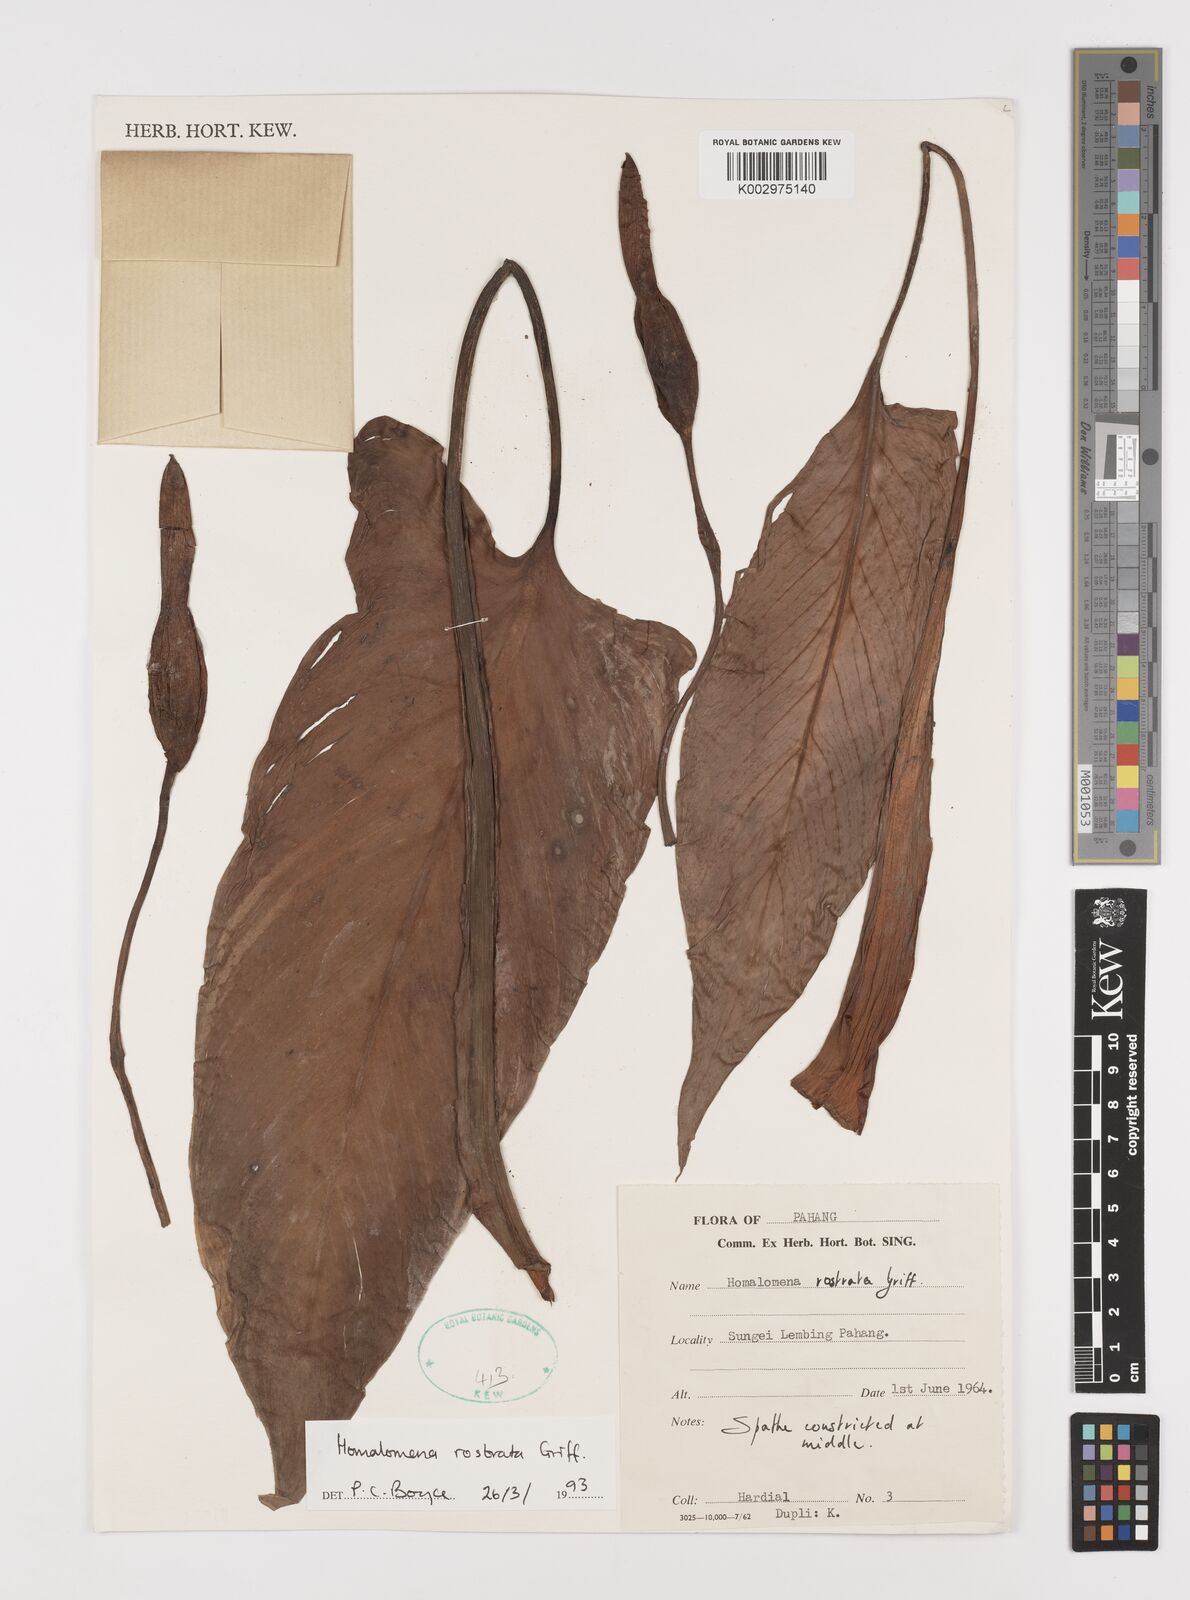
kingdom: Plantae
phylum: Tracheophyta
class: Liliopsida
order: Alismatales
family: Araceae
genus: Homalomena
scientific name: Homalomena rostrata
